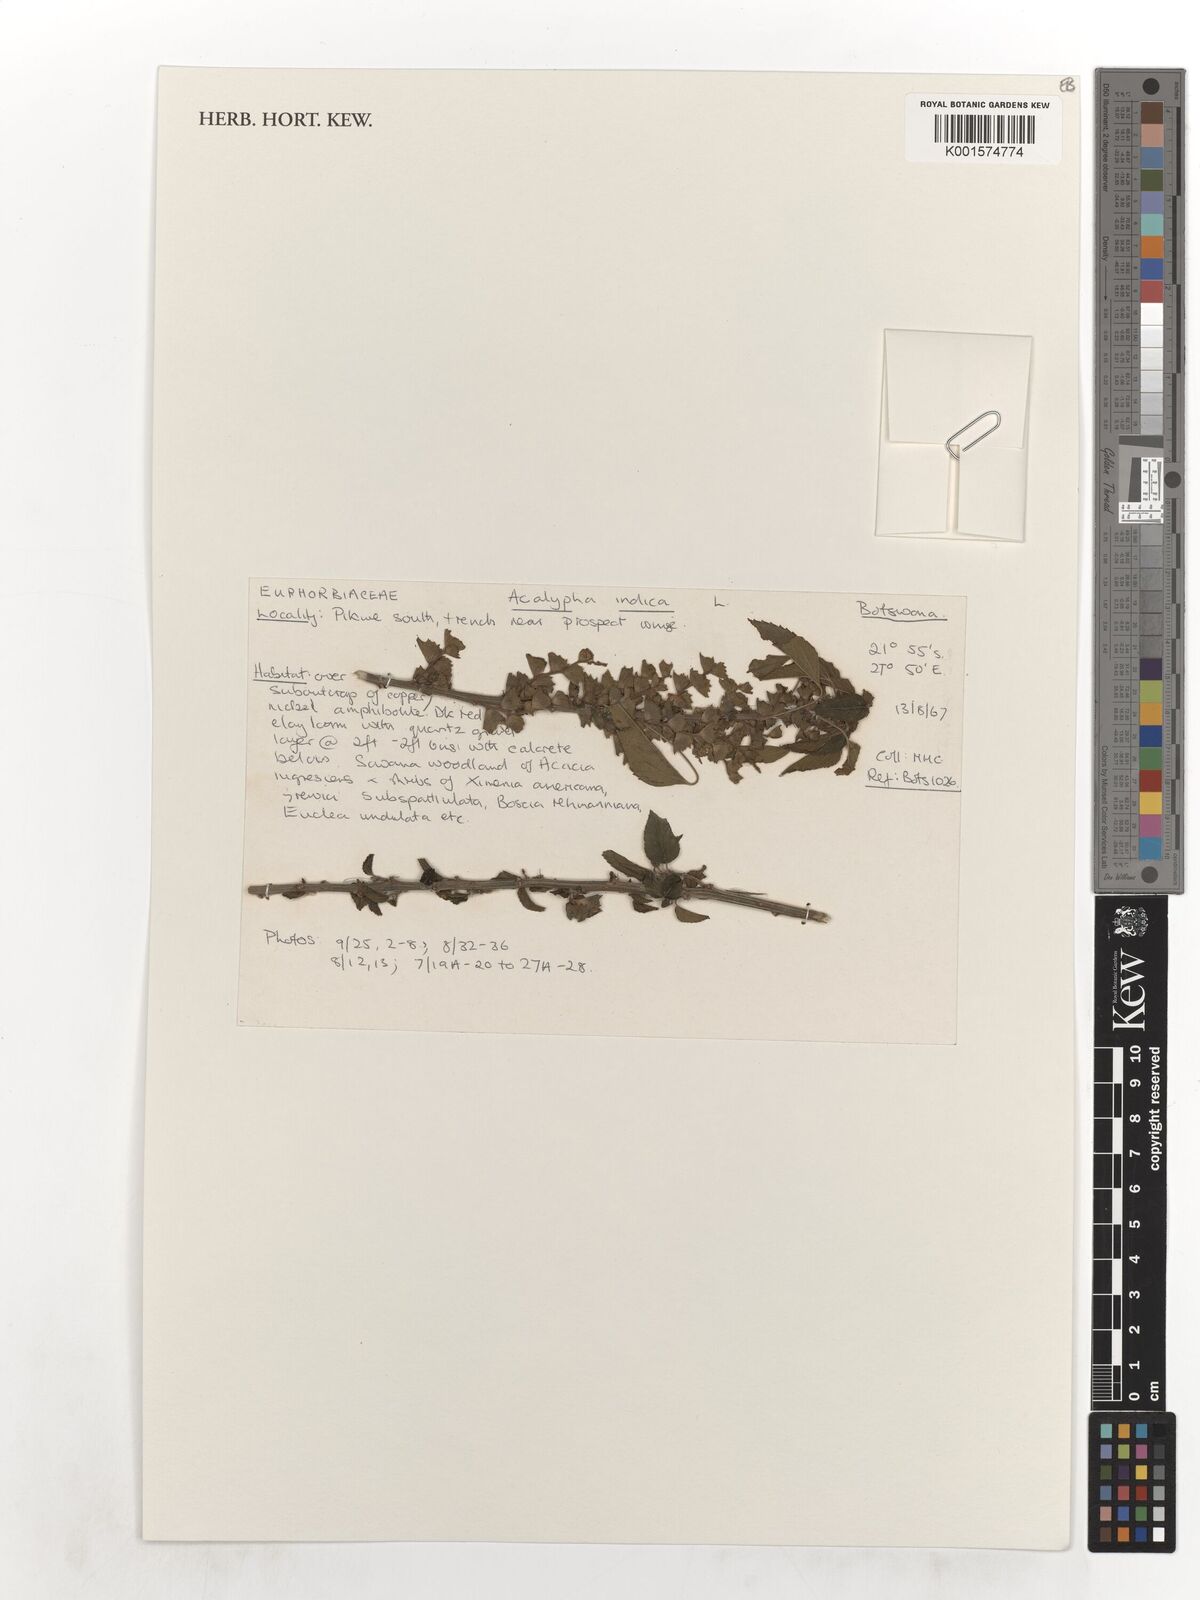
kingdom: Plantae
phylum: Tracheophyta
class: Magnoliopsida
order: Malpighiales
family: Euphorbiaceae
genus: Acalypha
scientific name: Acalypha indica
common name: Indian acalypha
